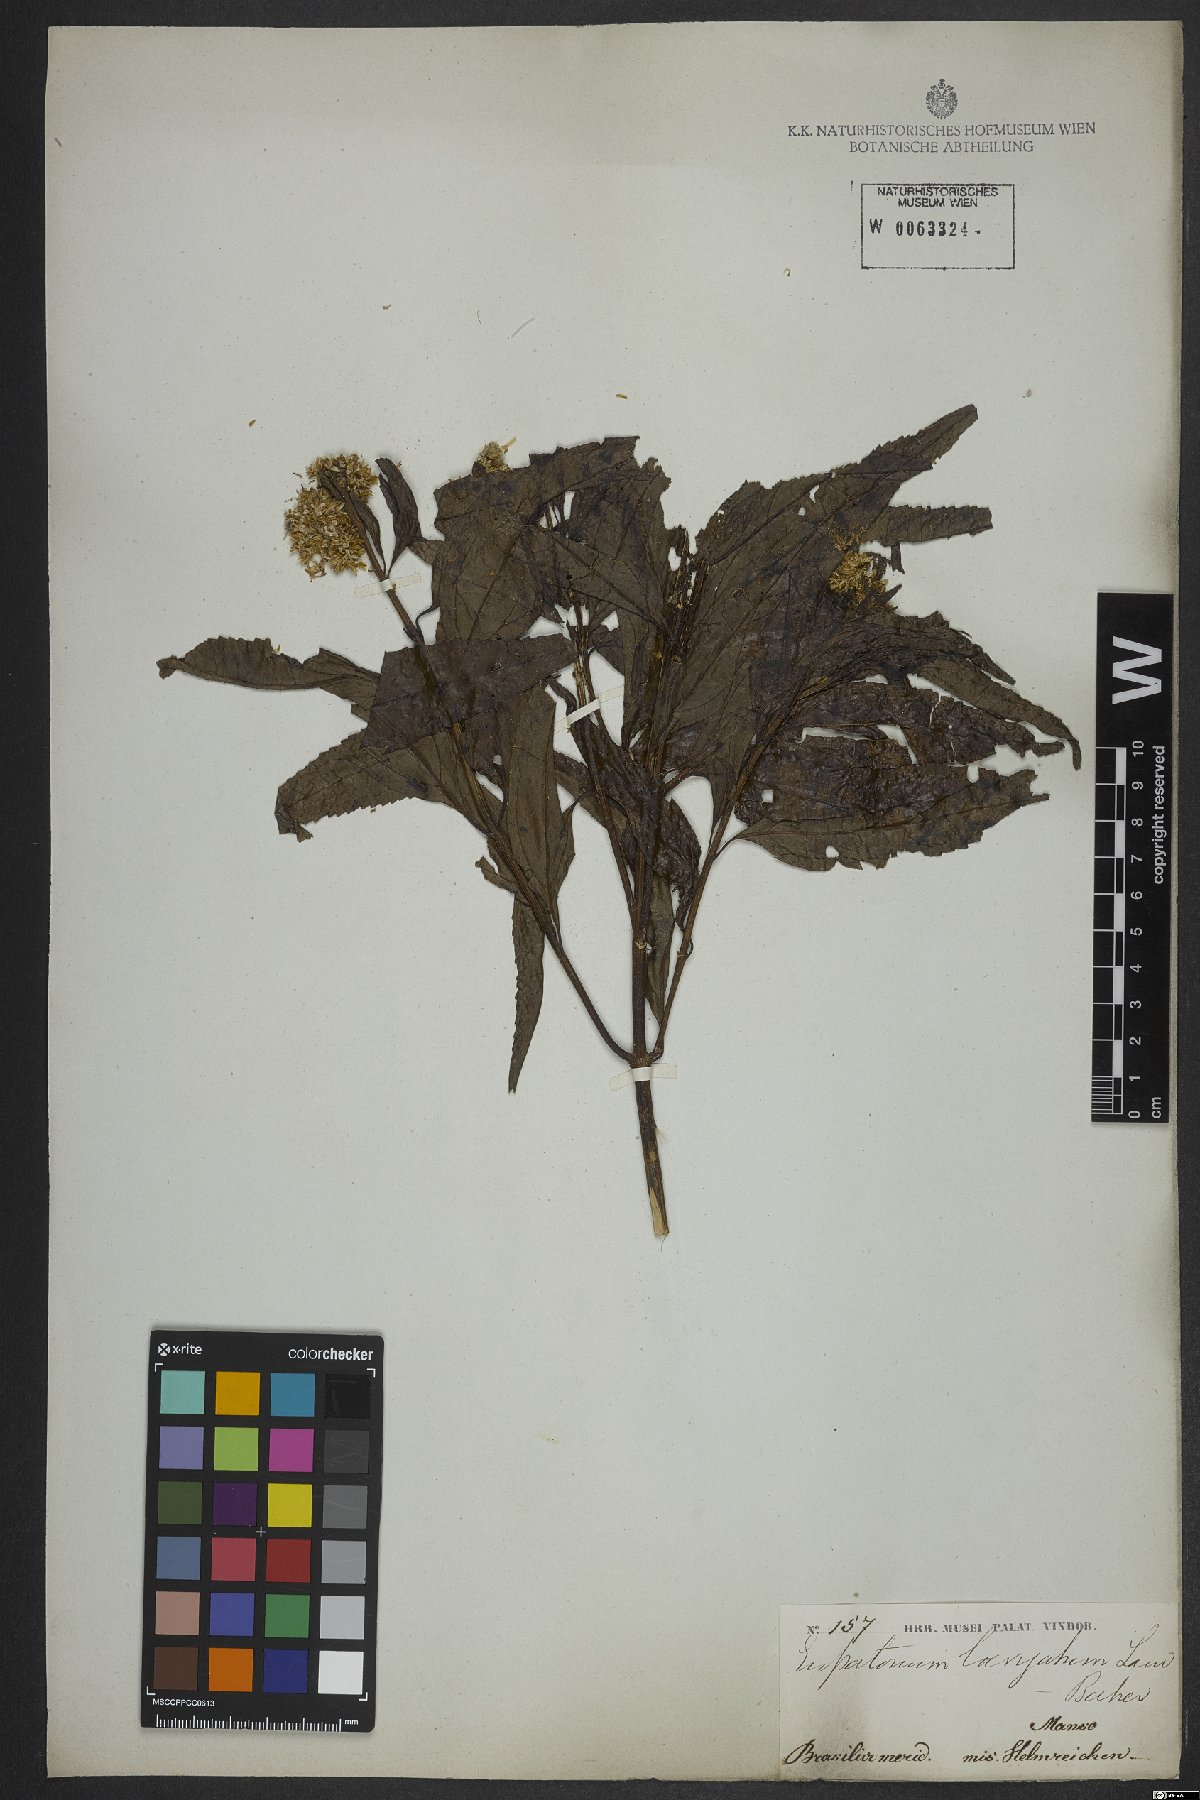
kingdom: Plantae
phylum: Tracheophyta
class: Magnoliopsida
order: Asterales
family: Asteraceae
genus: Eupatorium
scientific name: Eupatorium laevigatum
